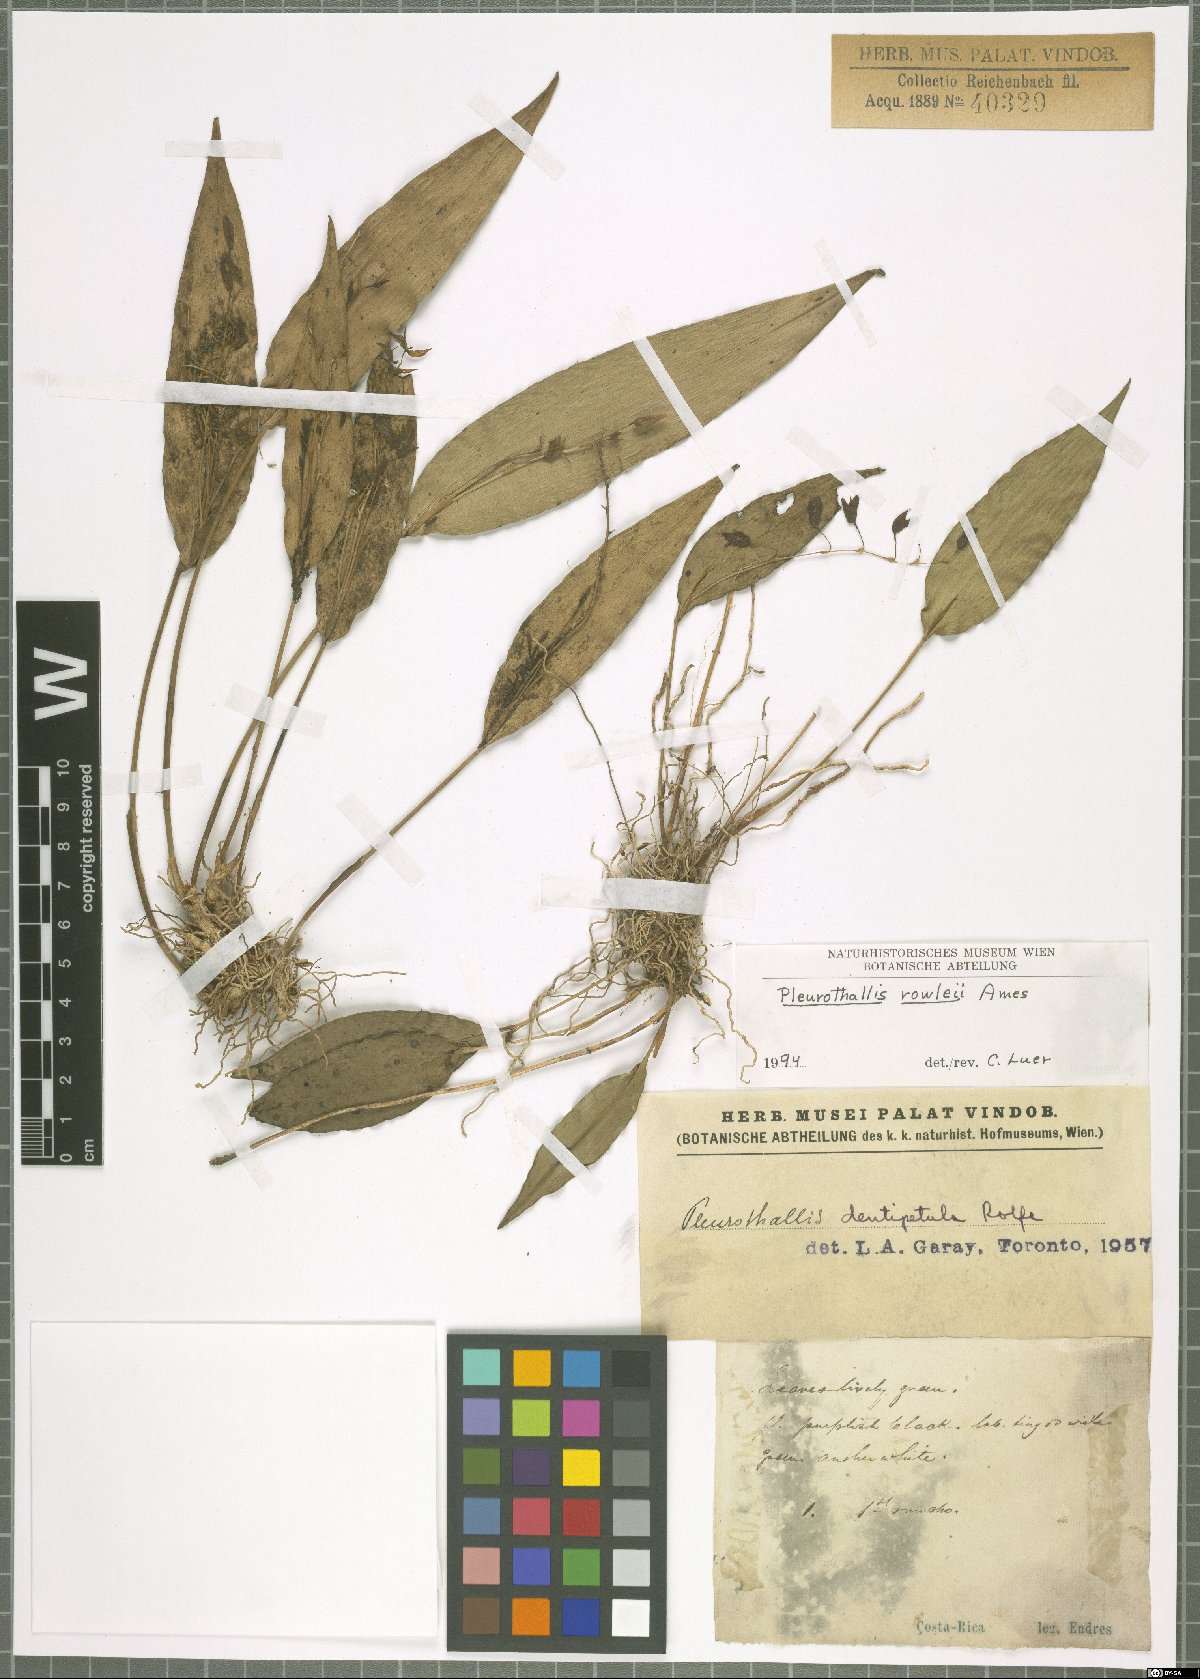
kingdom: Plantae
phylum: Tracheophyta
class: Liliopsida
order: Asparagales
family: Orchidaceae
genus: Pleurothallis
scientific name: Pleurothallis rowleei
